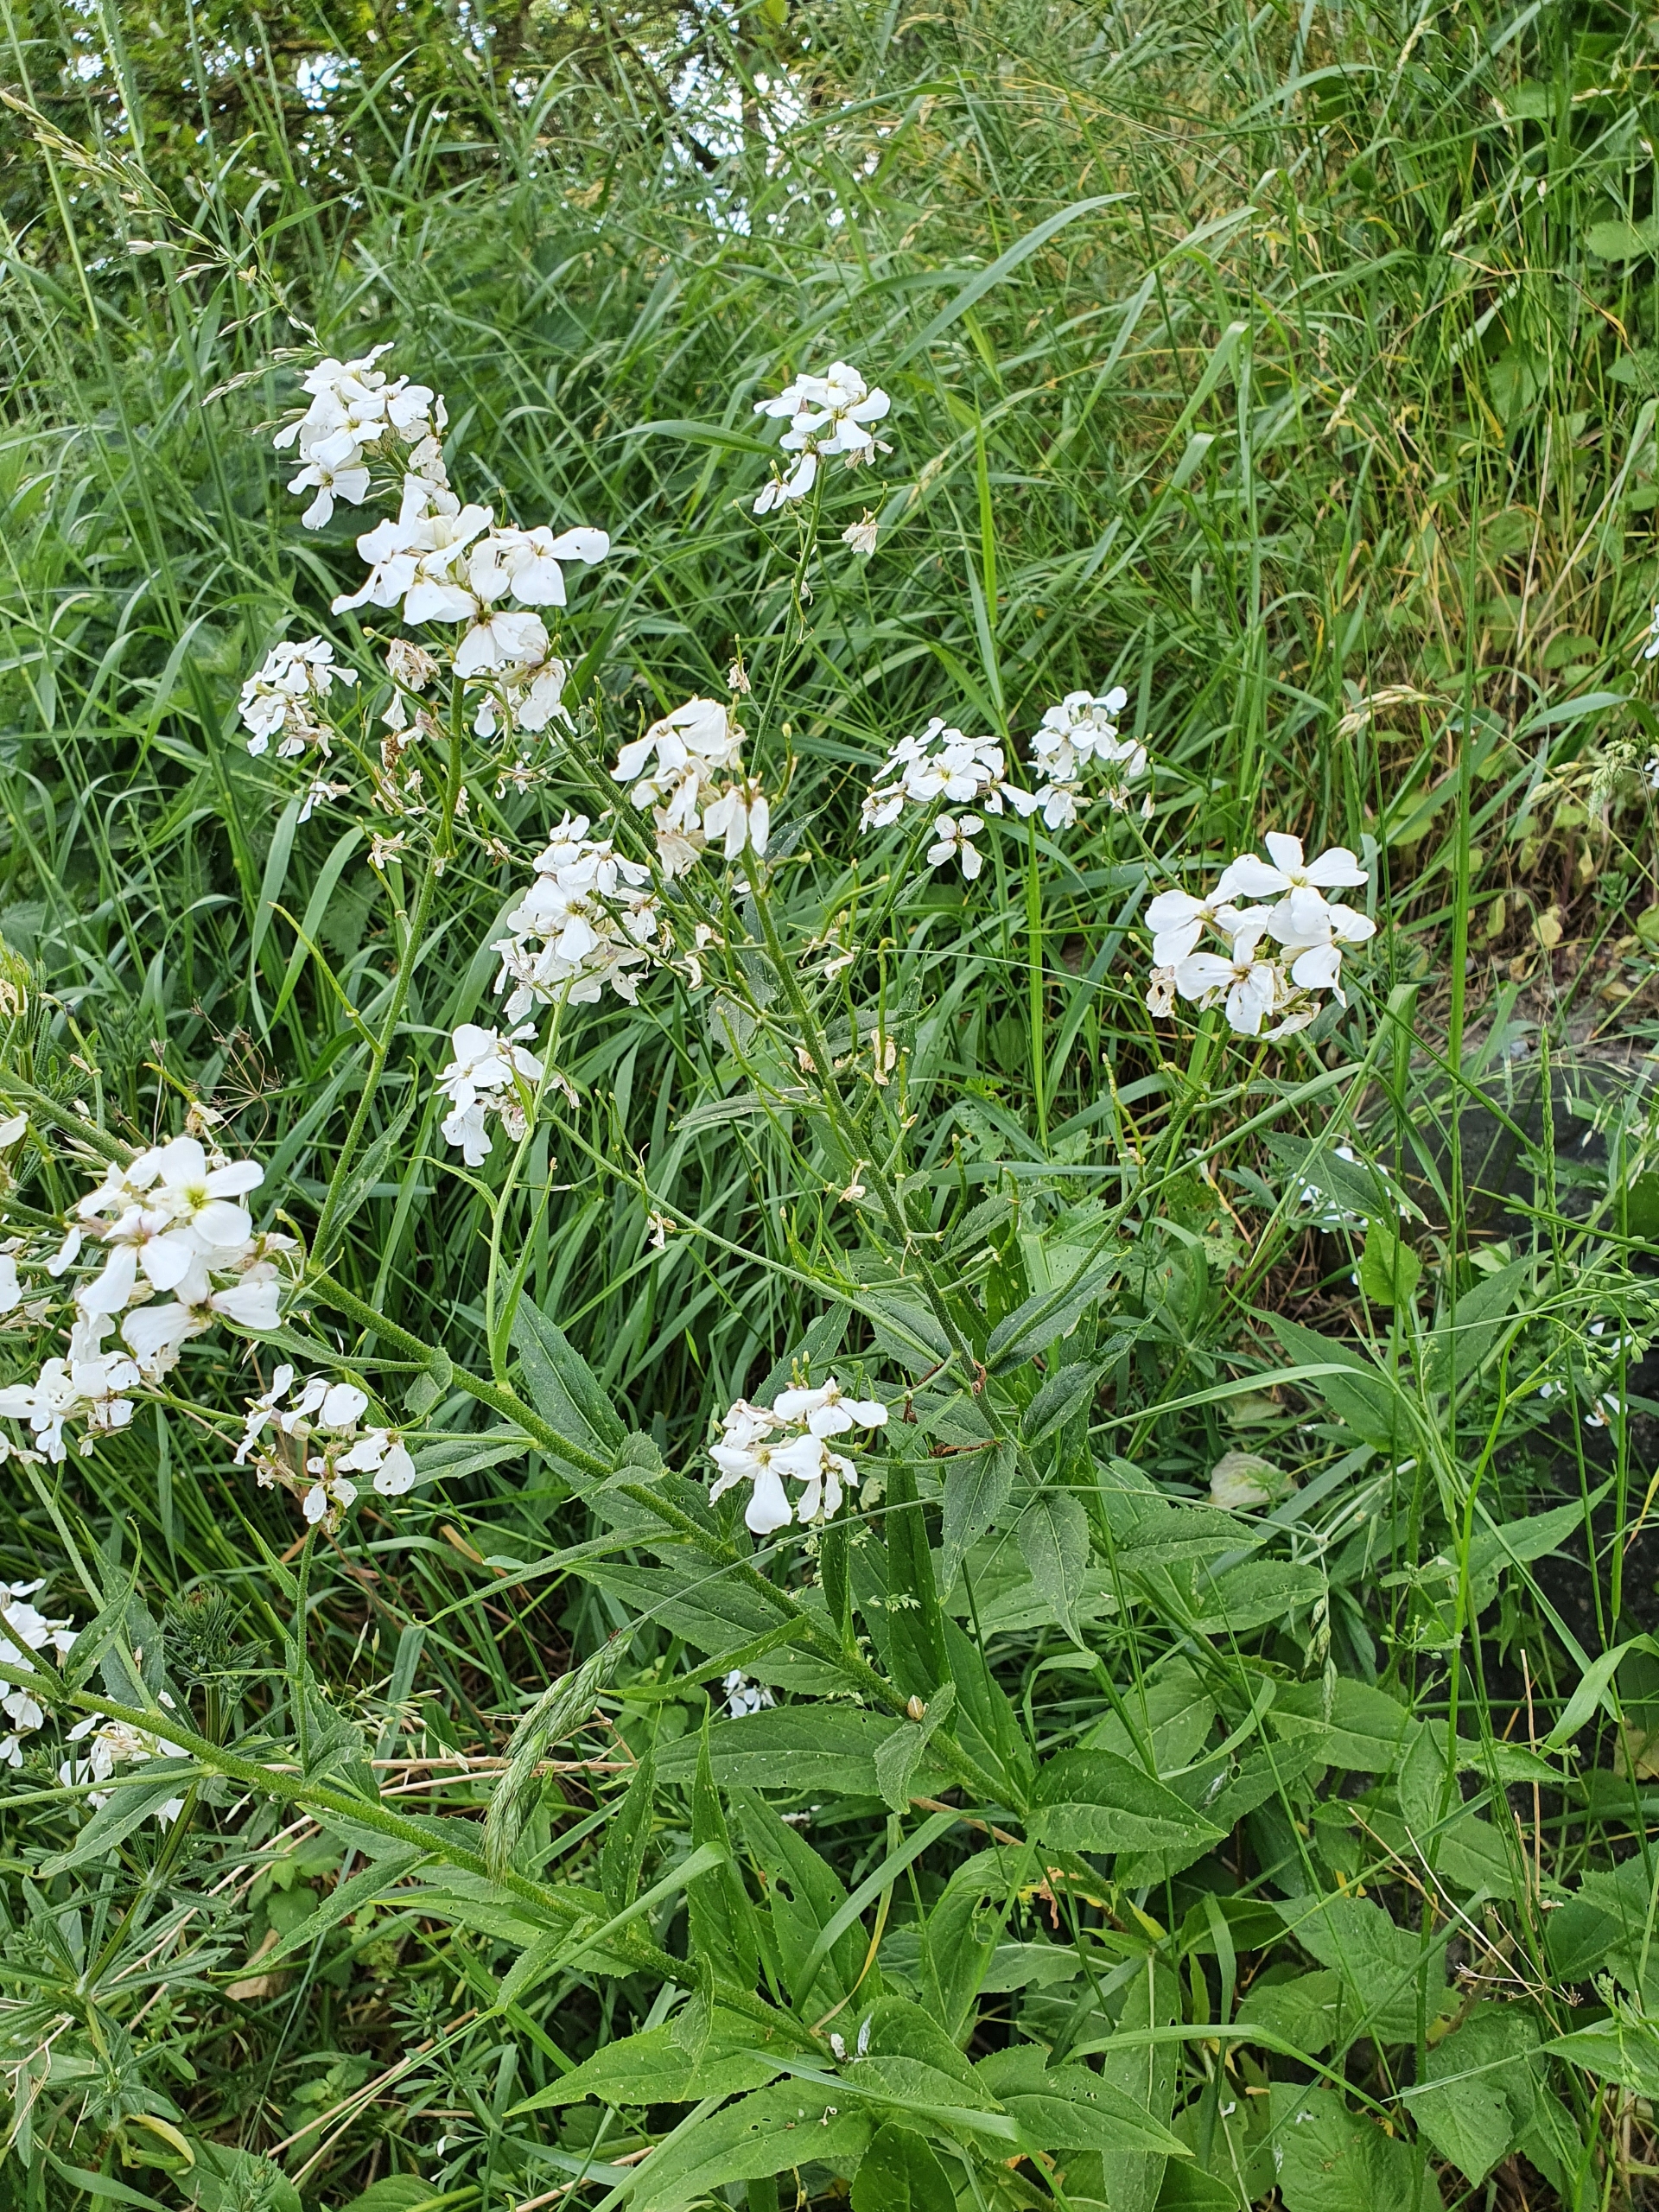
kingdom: Plantae
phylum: Tracheophyta
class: Magnoliopsida
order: Brassicales
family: Brassicaceae
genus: Hesperis
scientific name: Hesperis matronalis
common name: Aftenstjerne
